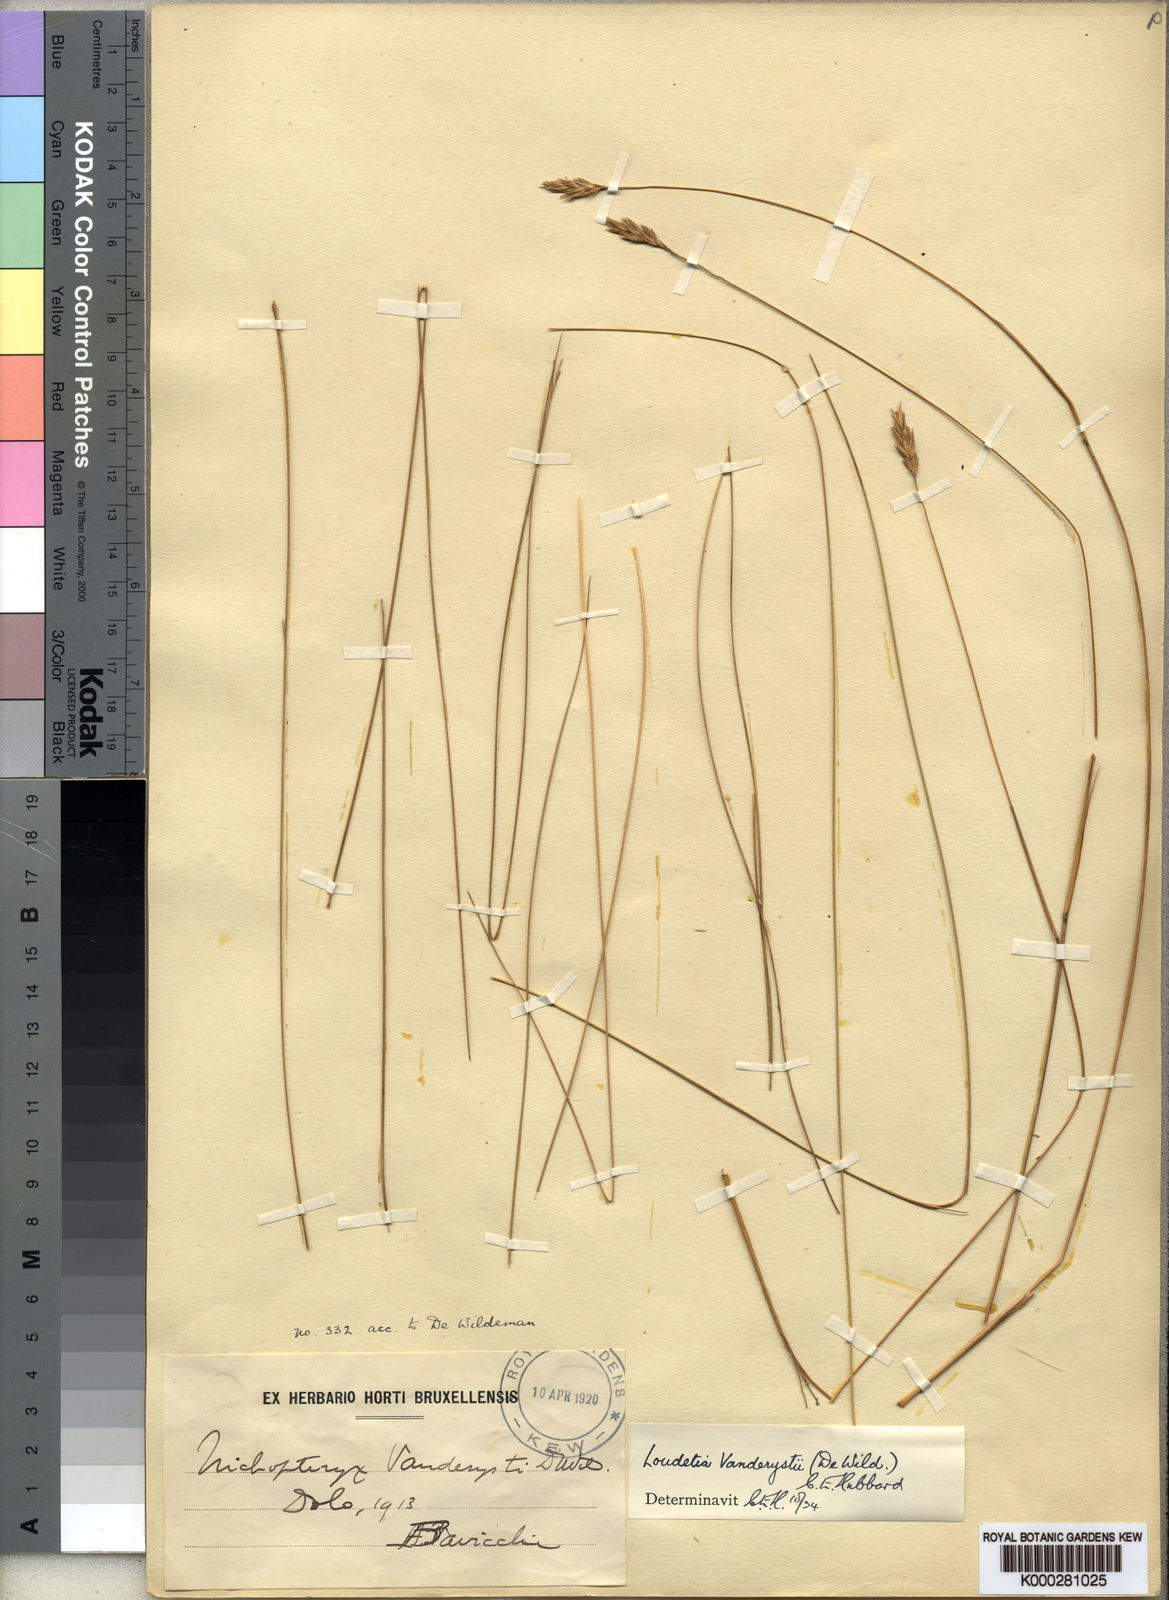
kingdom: Plantae
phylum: Tracheophyta
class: Liliopsida
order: Poales
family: Poaceae
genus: Loudetia
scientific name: Loudetia vanderystii
